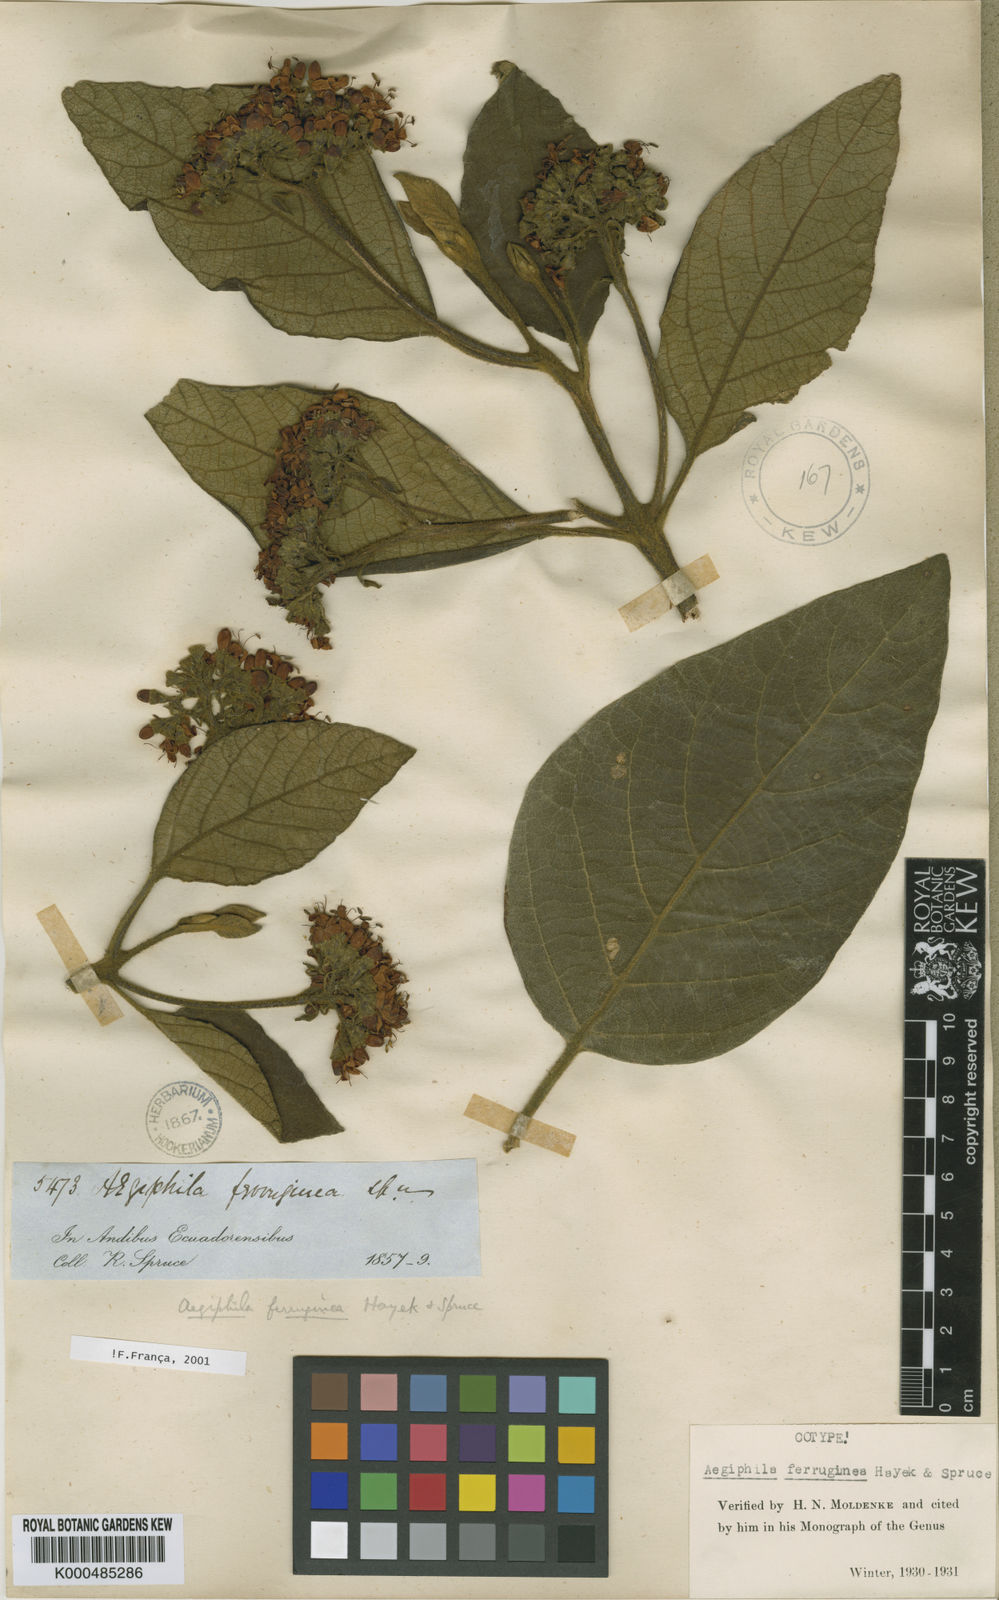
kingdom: Plantae
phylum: Tracheophyta
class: Magnoliopsida
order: Lamiales
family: Lamiaceae
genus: Aegiphila
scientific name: Aegiphila ferruginea
